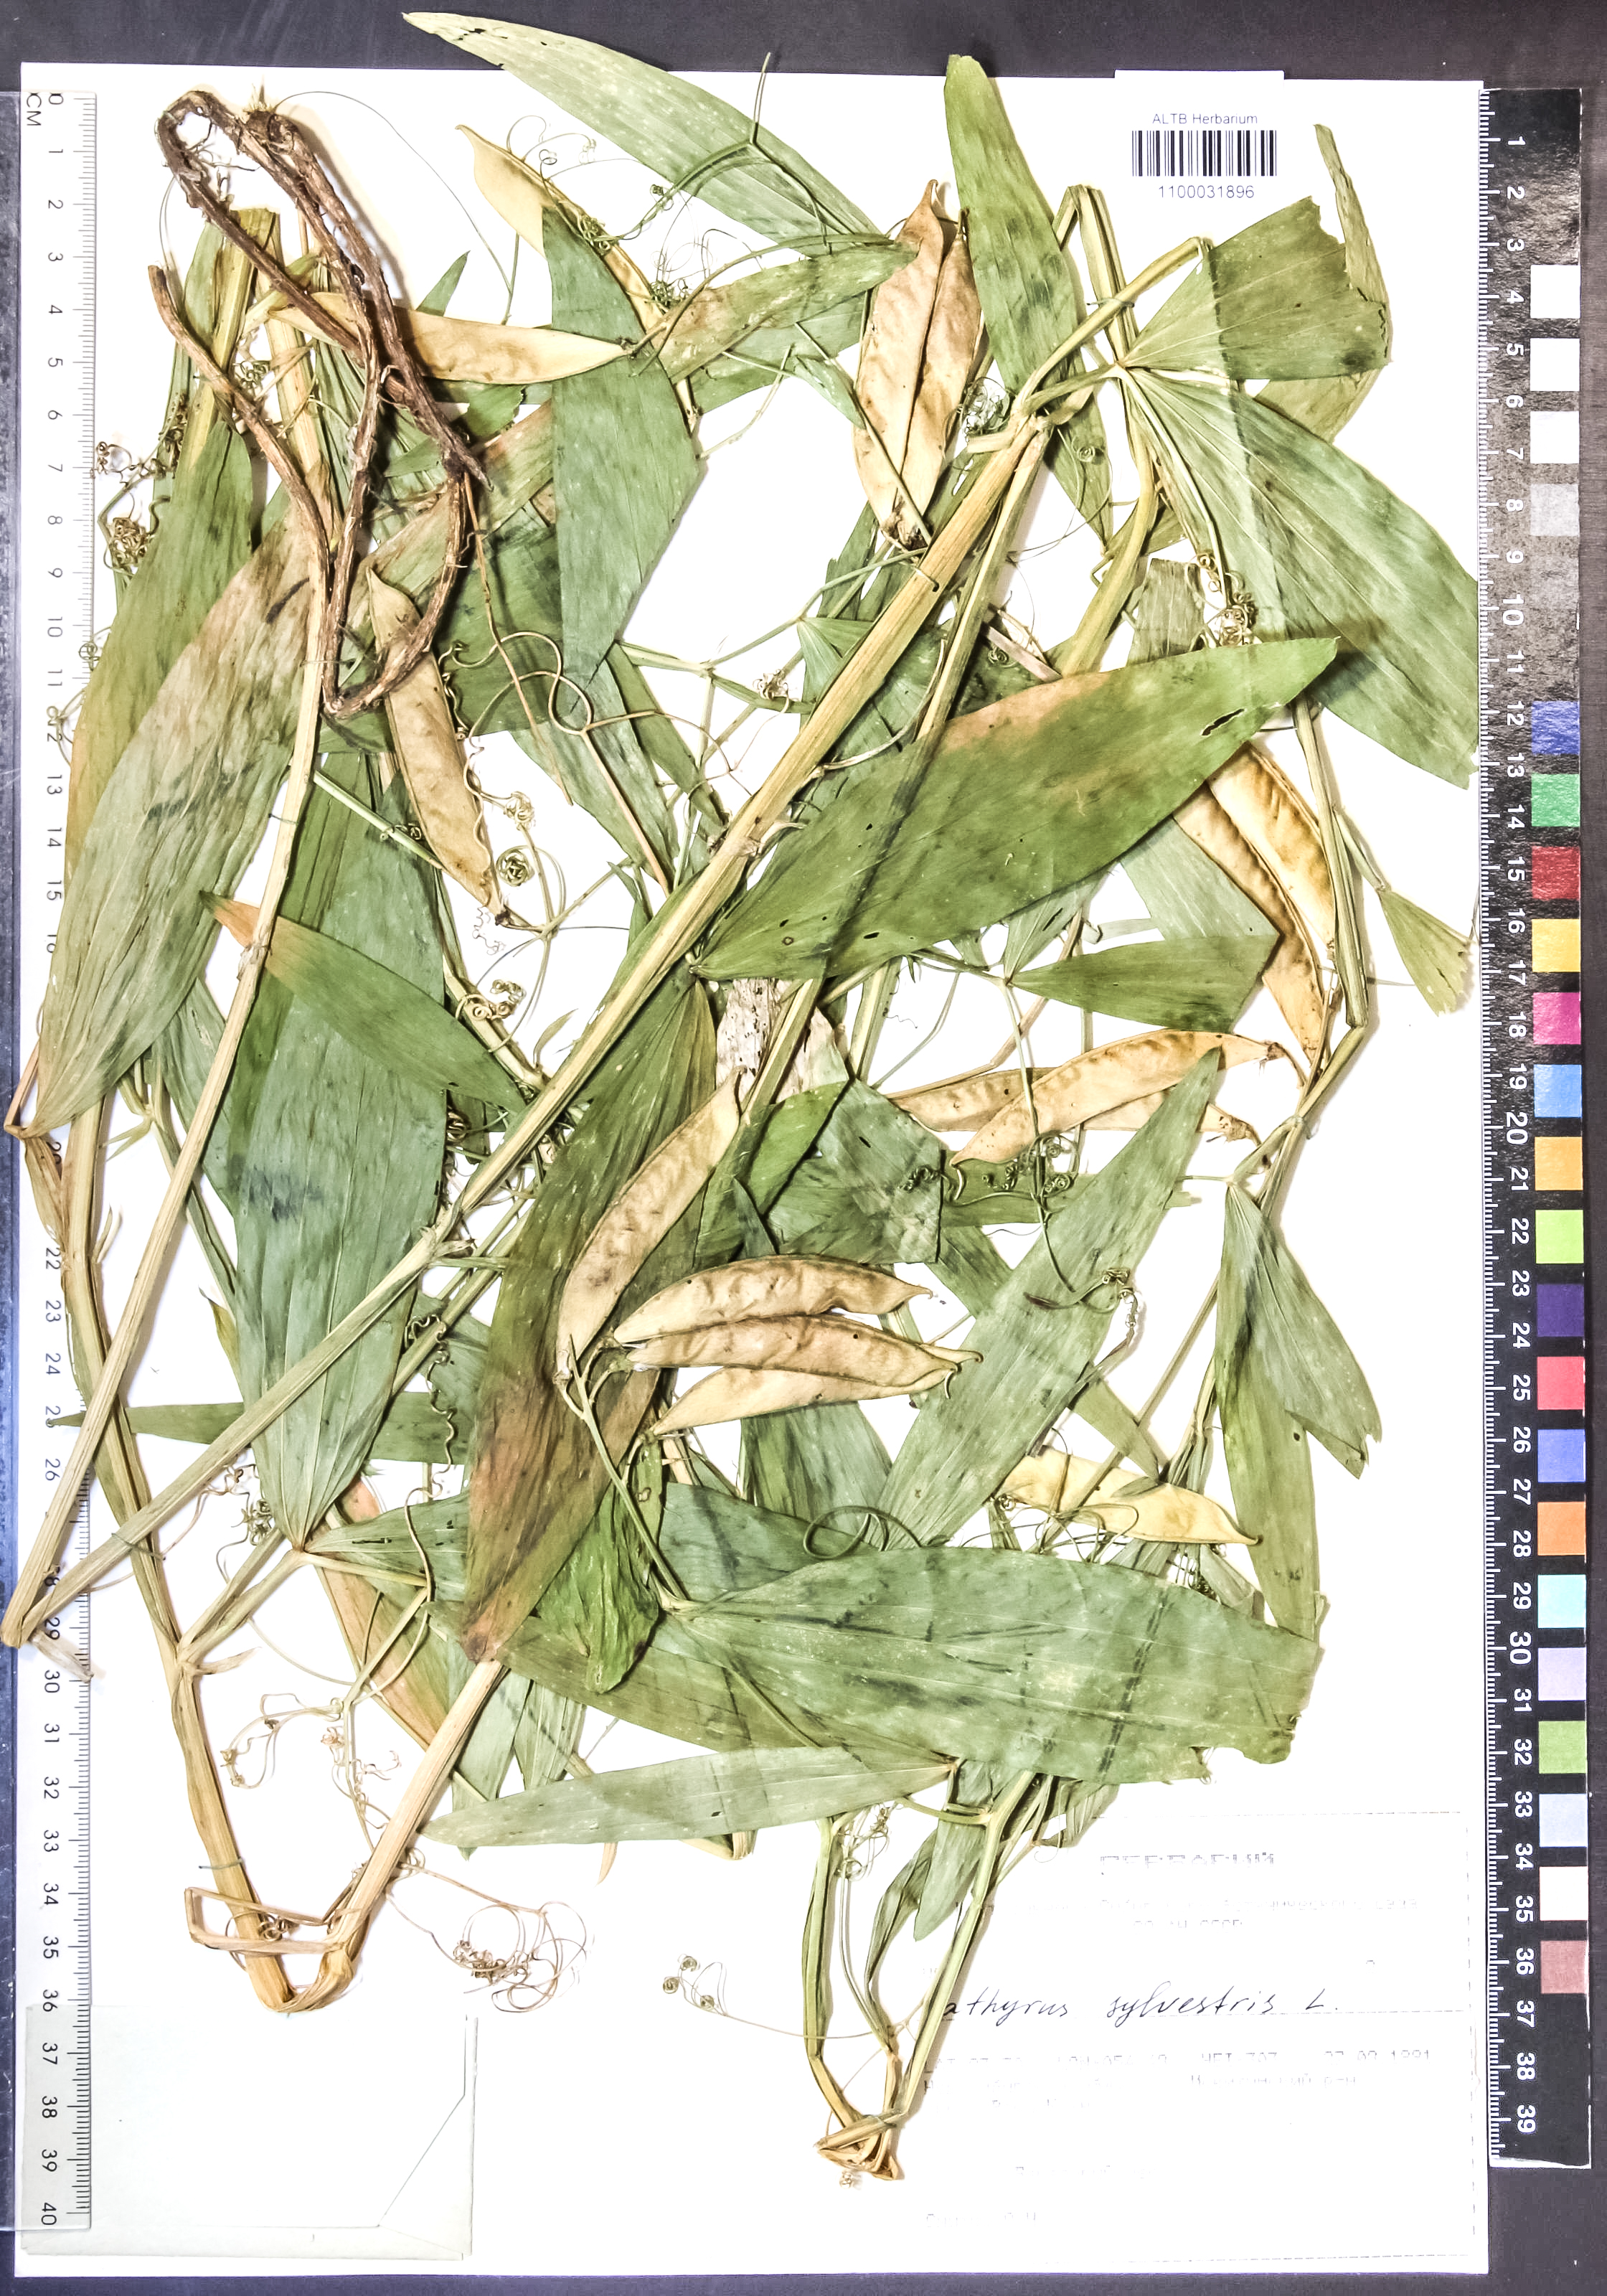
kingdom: Plantae
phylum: Tracheophyta
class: Magnoliopsida
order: Fabales
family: Fabaceae
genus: Lathyrus
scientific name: Lathyrus sylvestris
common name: Flat pea
